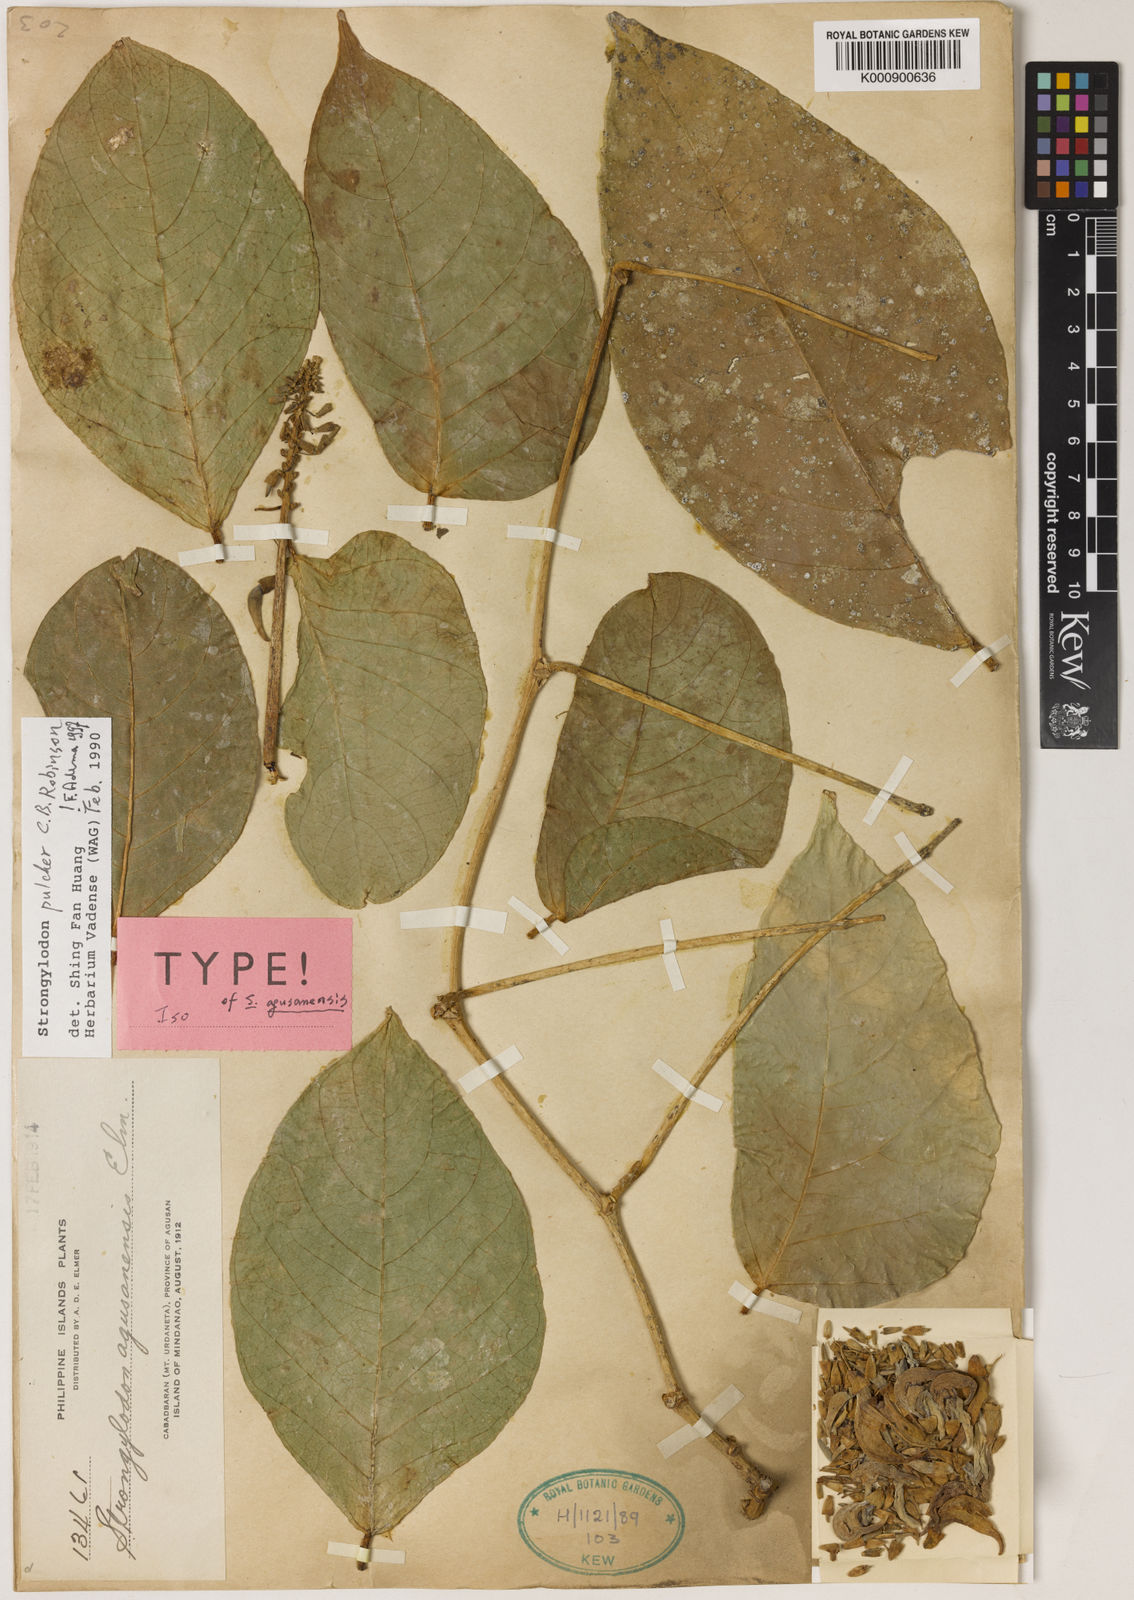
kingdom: Plantae
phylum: Tracheophyta
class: Magnoliopsida
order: Fabales
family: Fabaceae
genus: Strongylodon
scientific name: Strongylodon pulcher
